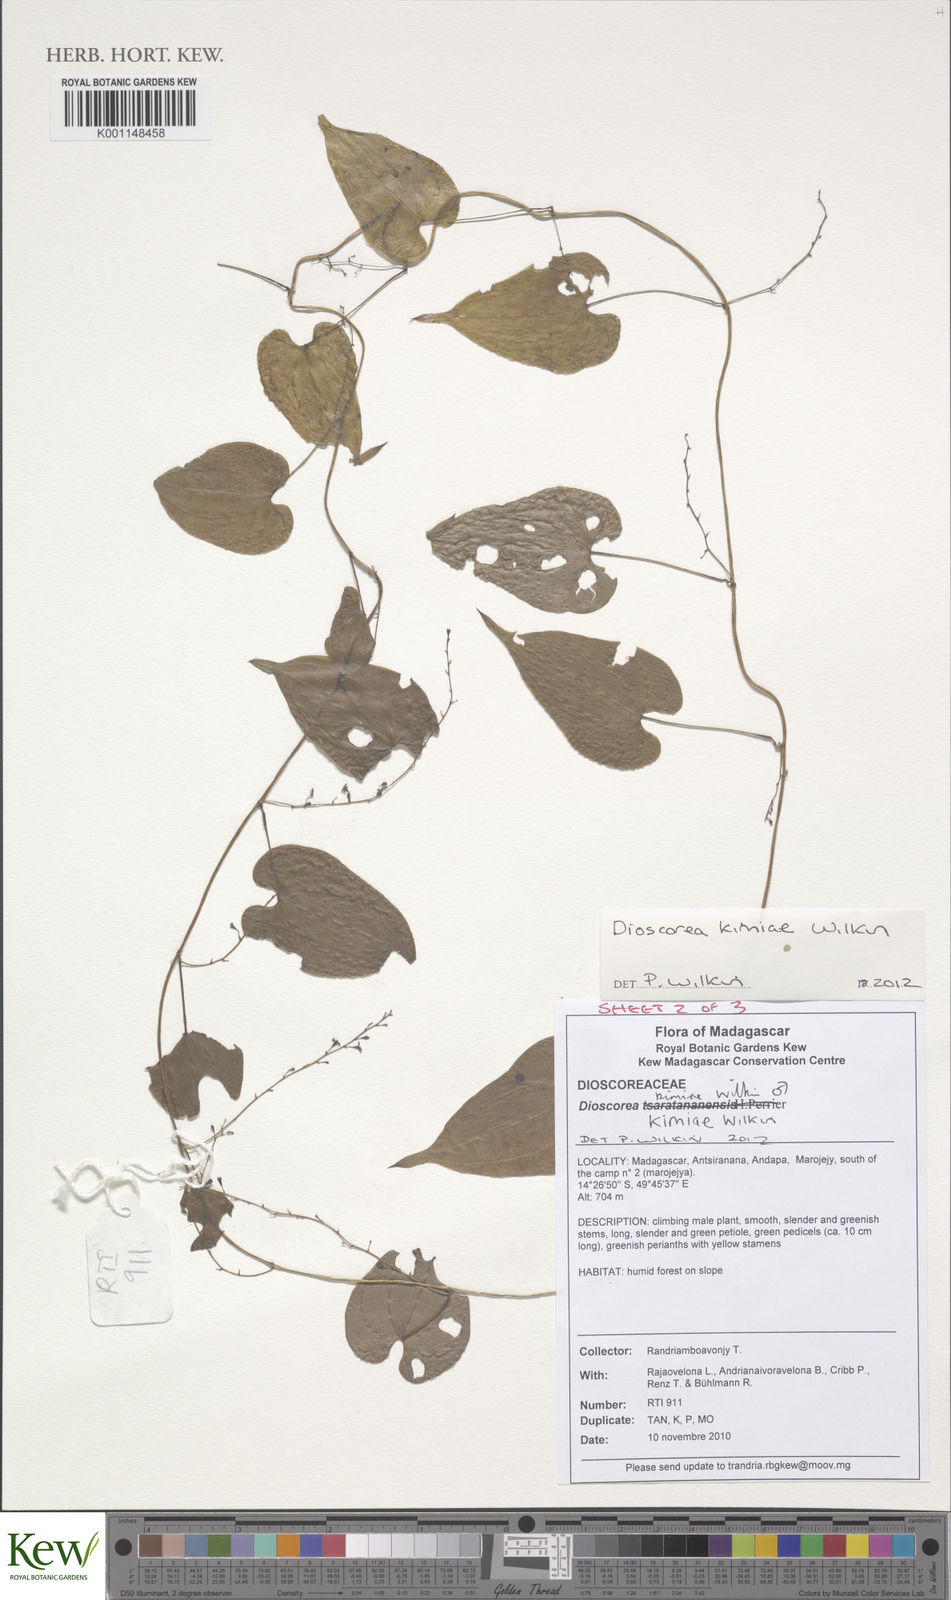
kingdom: Plantae
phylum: Tracheophyta
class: Liliopsida
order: Dioscoreales
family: Dioscoreaceae
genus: Dioscorea
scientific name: Dioscorea kimiae
